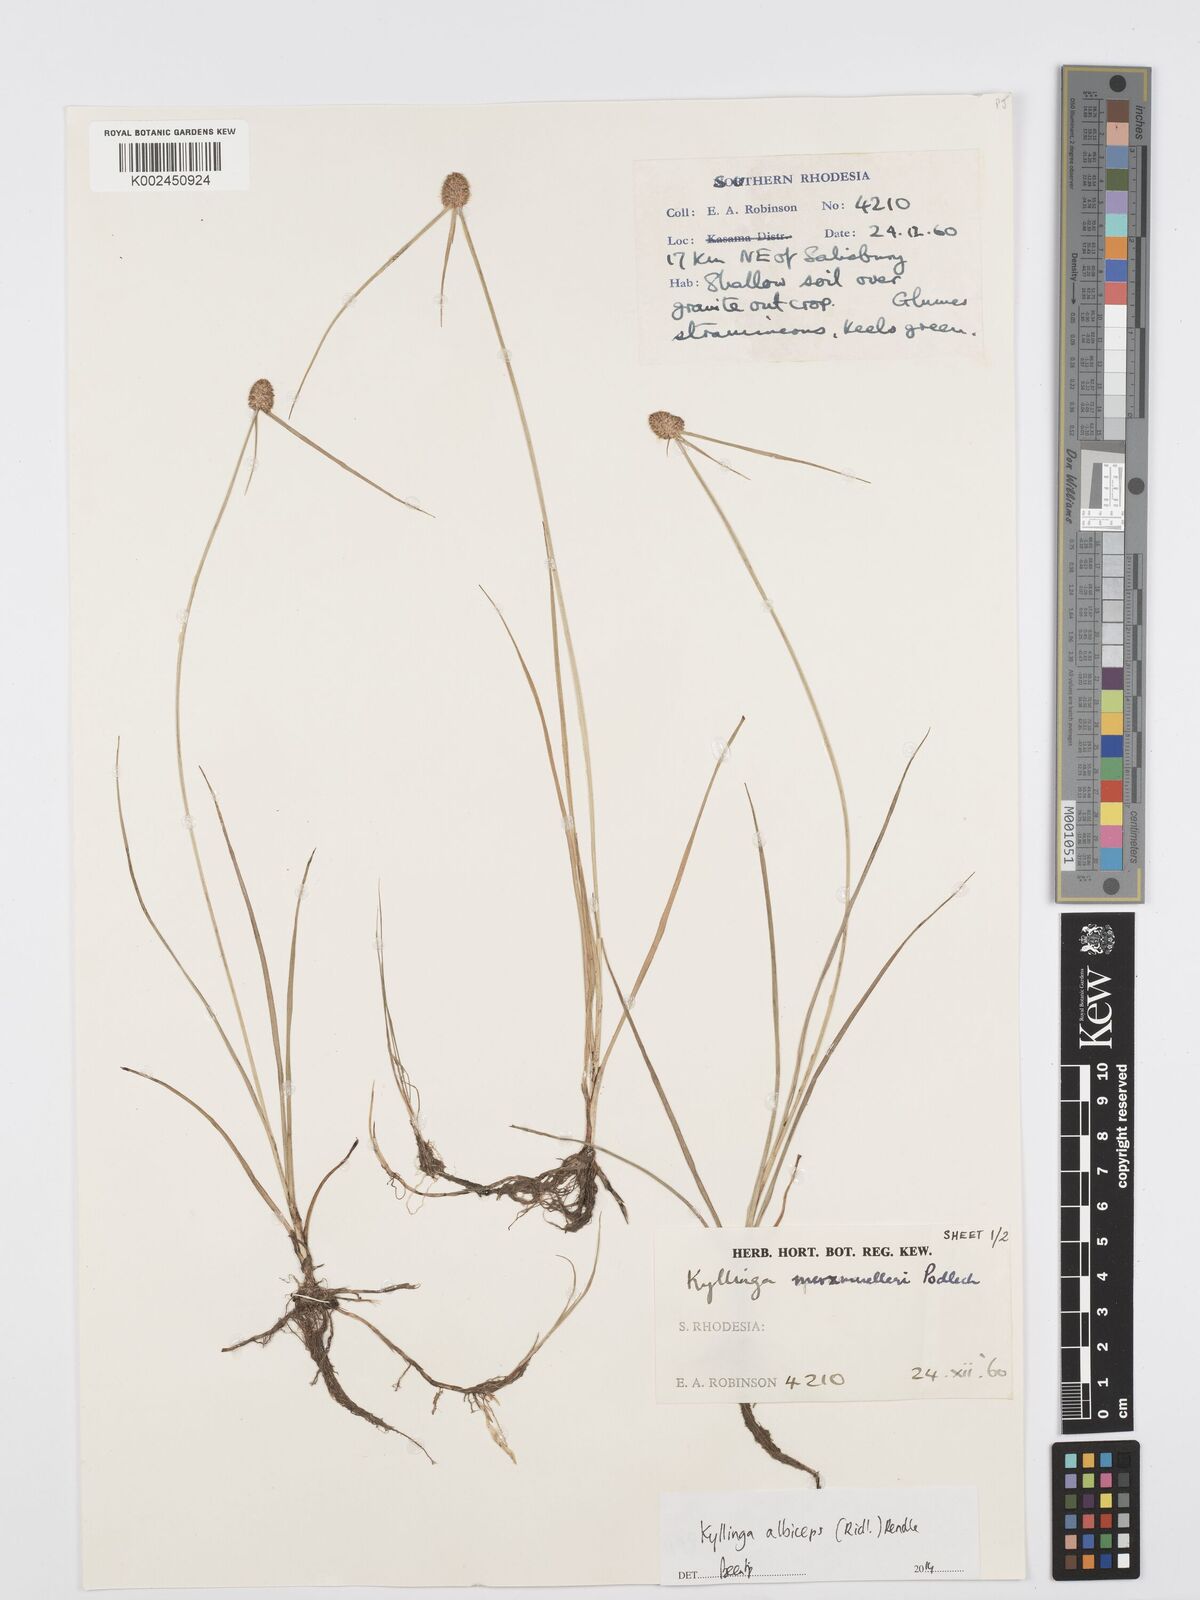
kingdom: Plantae
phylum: Tracheophyta
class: Liliopsida
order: Poales
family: Cyperaceae
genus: Cyperus
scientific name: Cyperus albiceps
